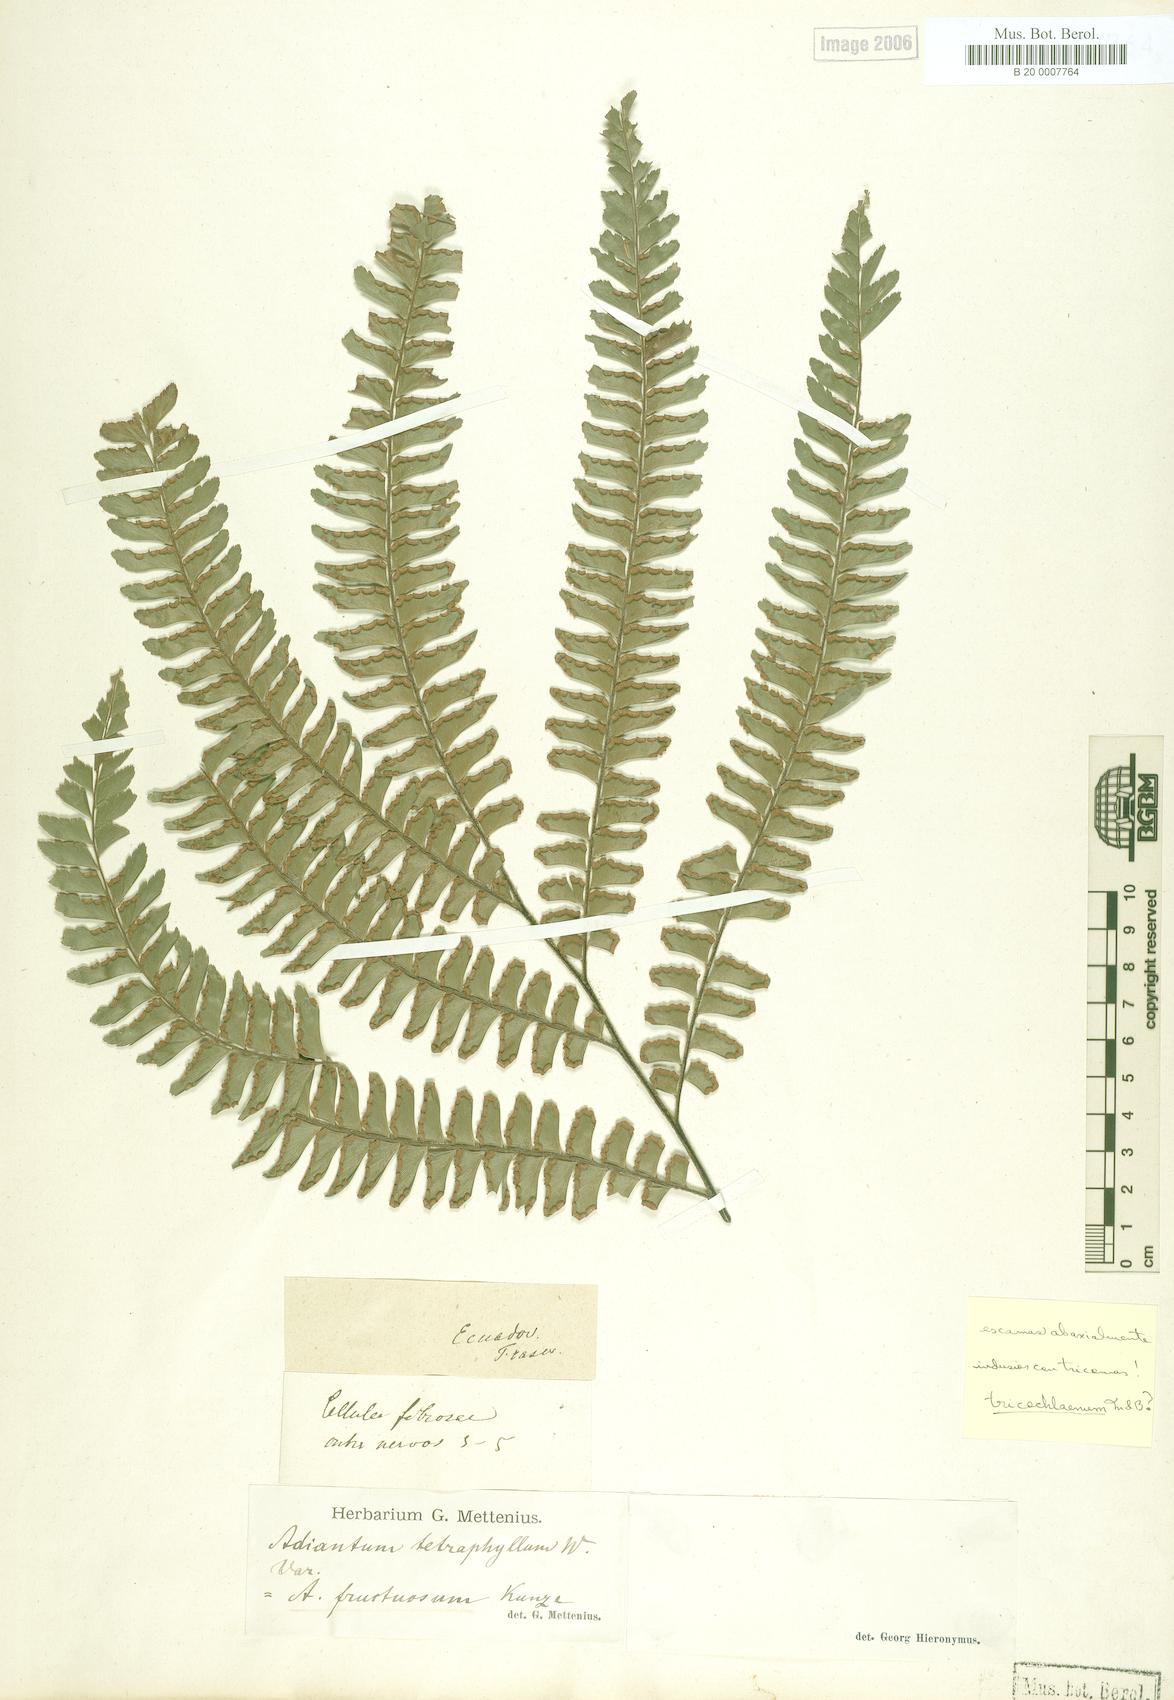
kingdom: Plantae
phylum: Tracheophyta
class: Polypodiopsida
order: Polypodiales
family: Pteridaceae
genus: Adiantum
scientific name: Adiantum tetraphyllum
